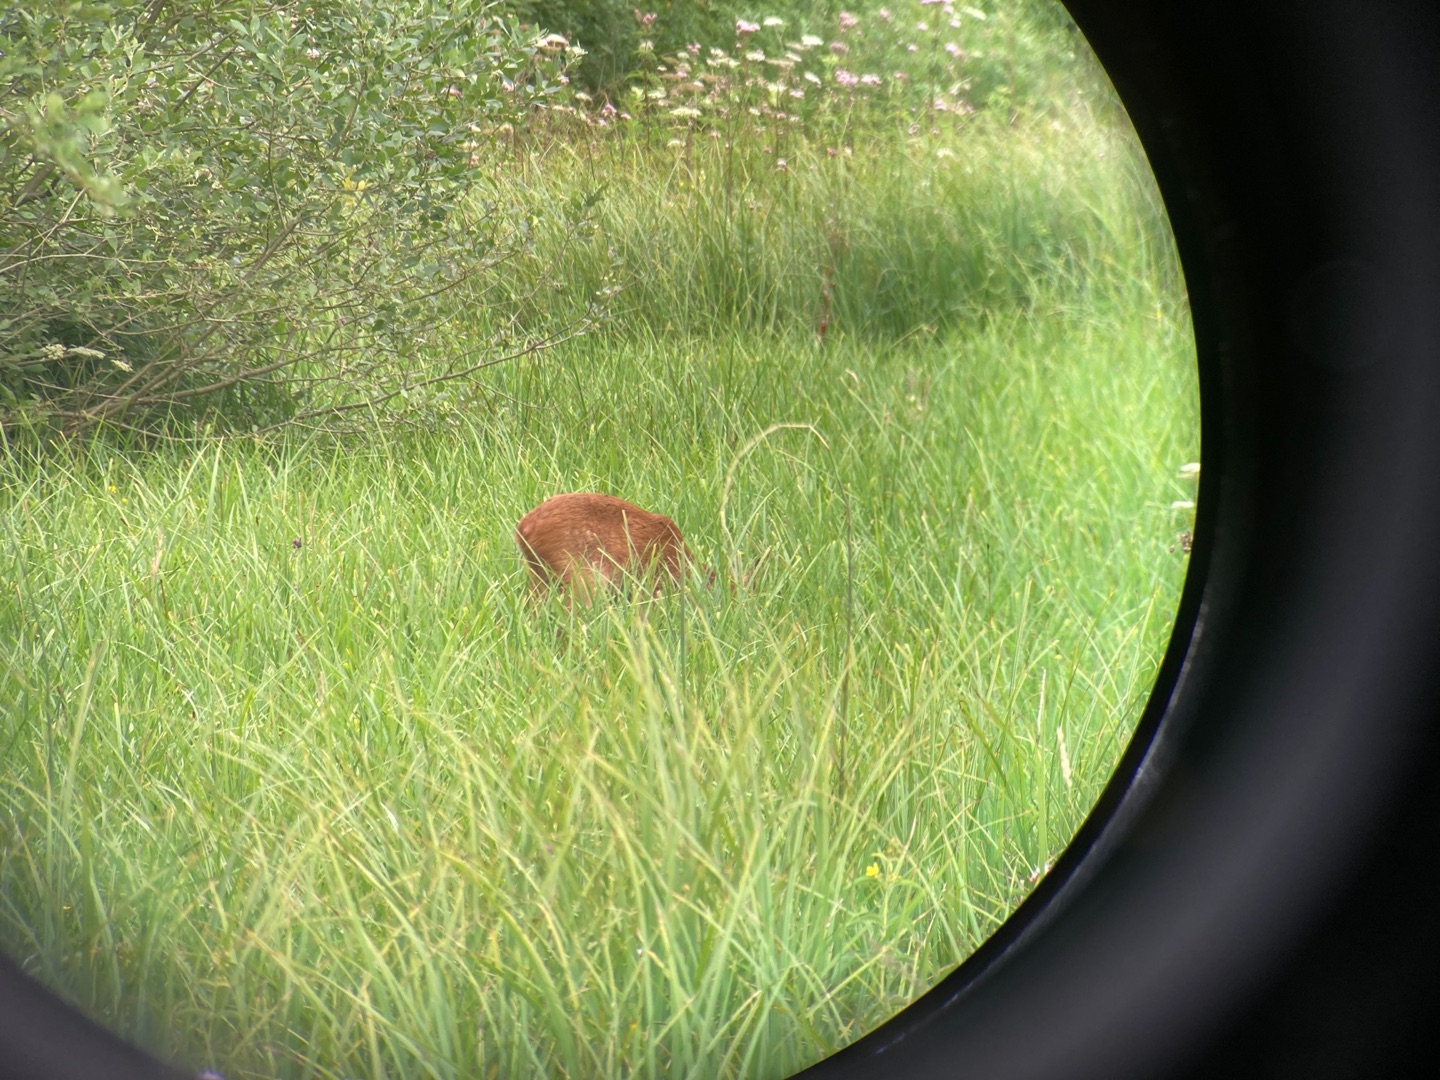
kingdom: Animalia
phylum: Chordata
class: Mammalia
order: Artiodactyla
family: Cervidae
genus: Capreolus
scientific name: Capreolus capreolus
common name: Rådyr
